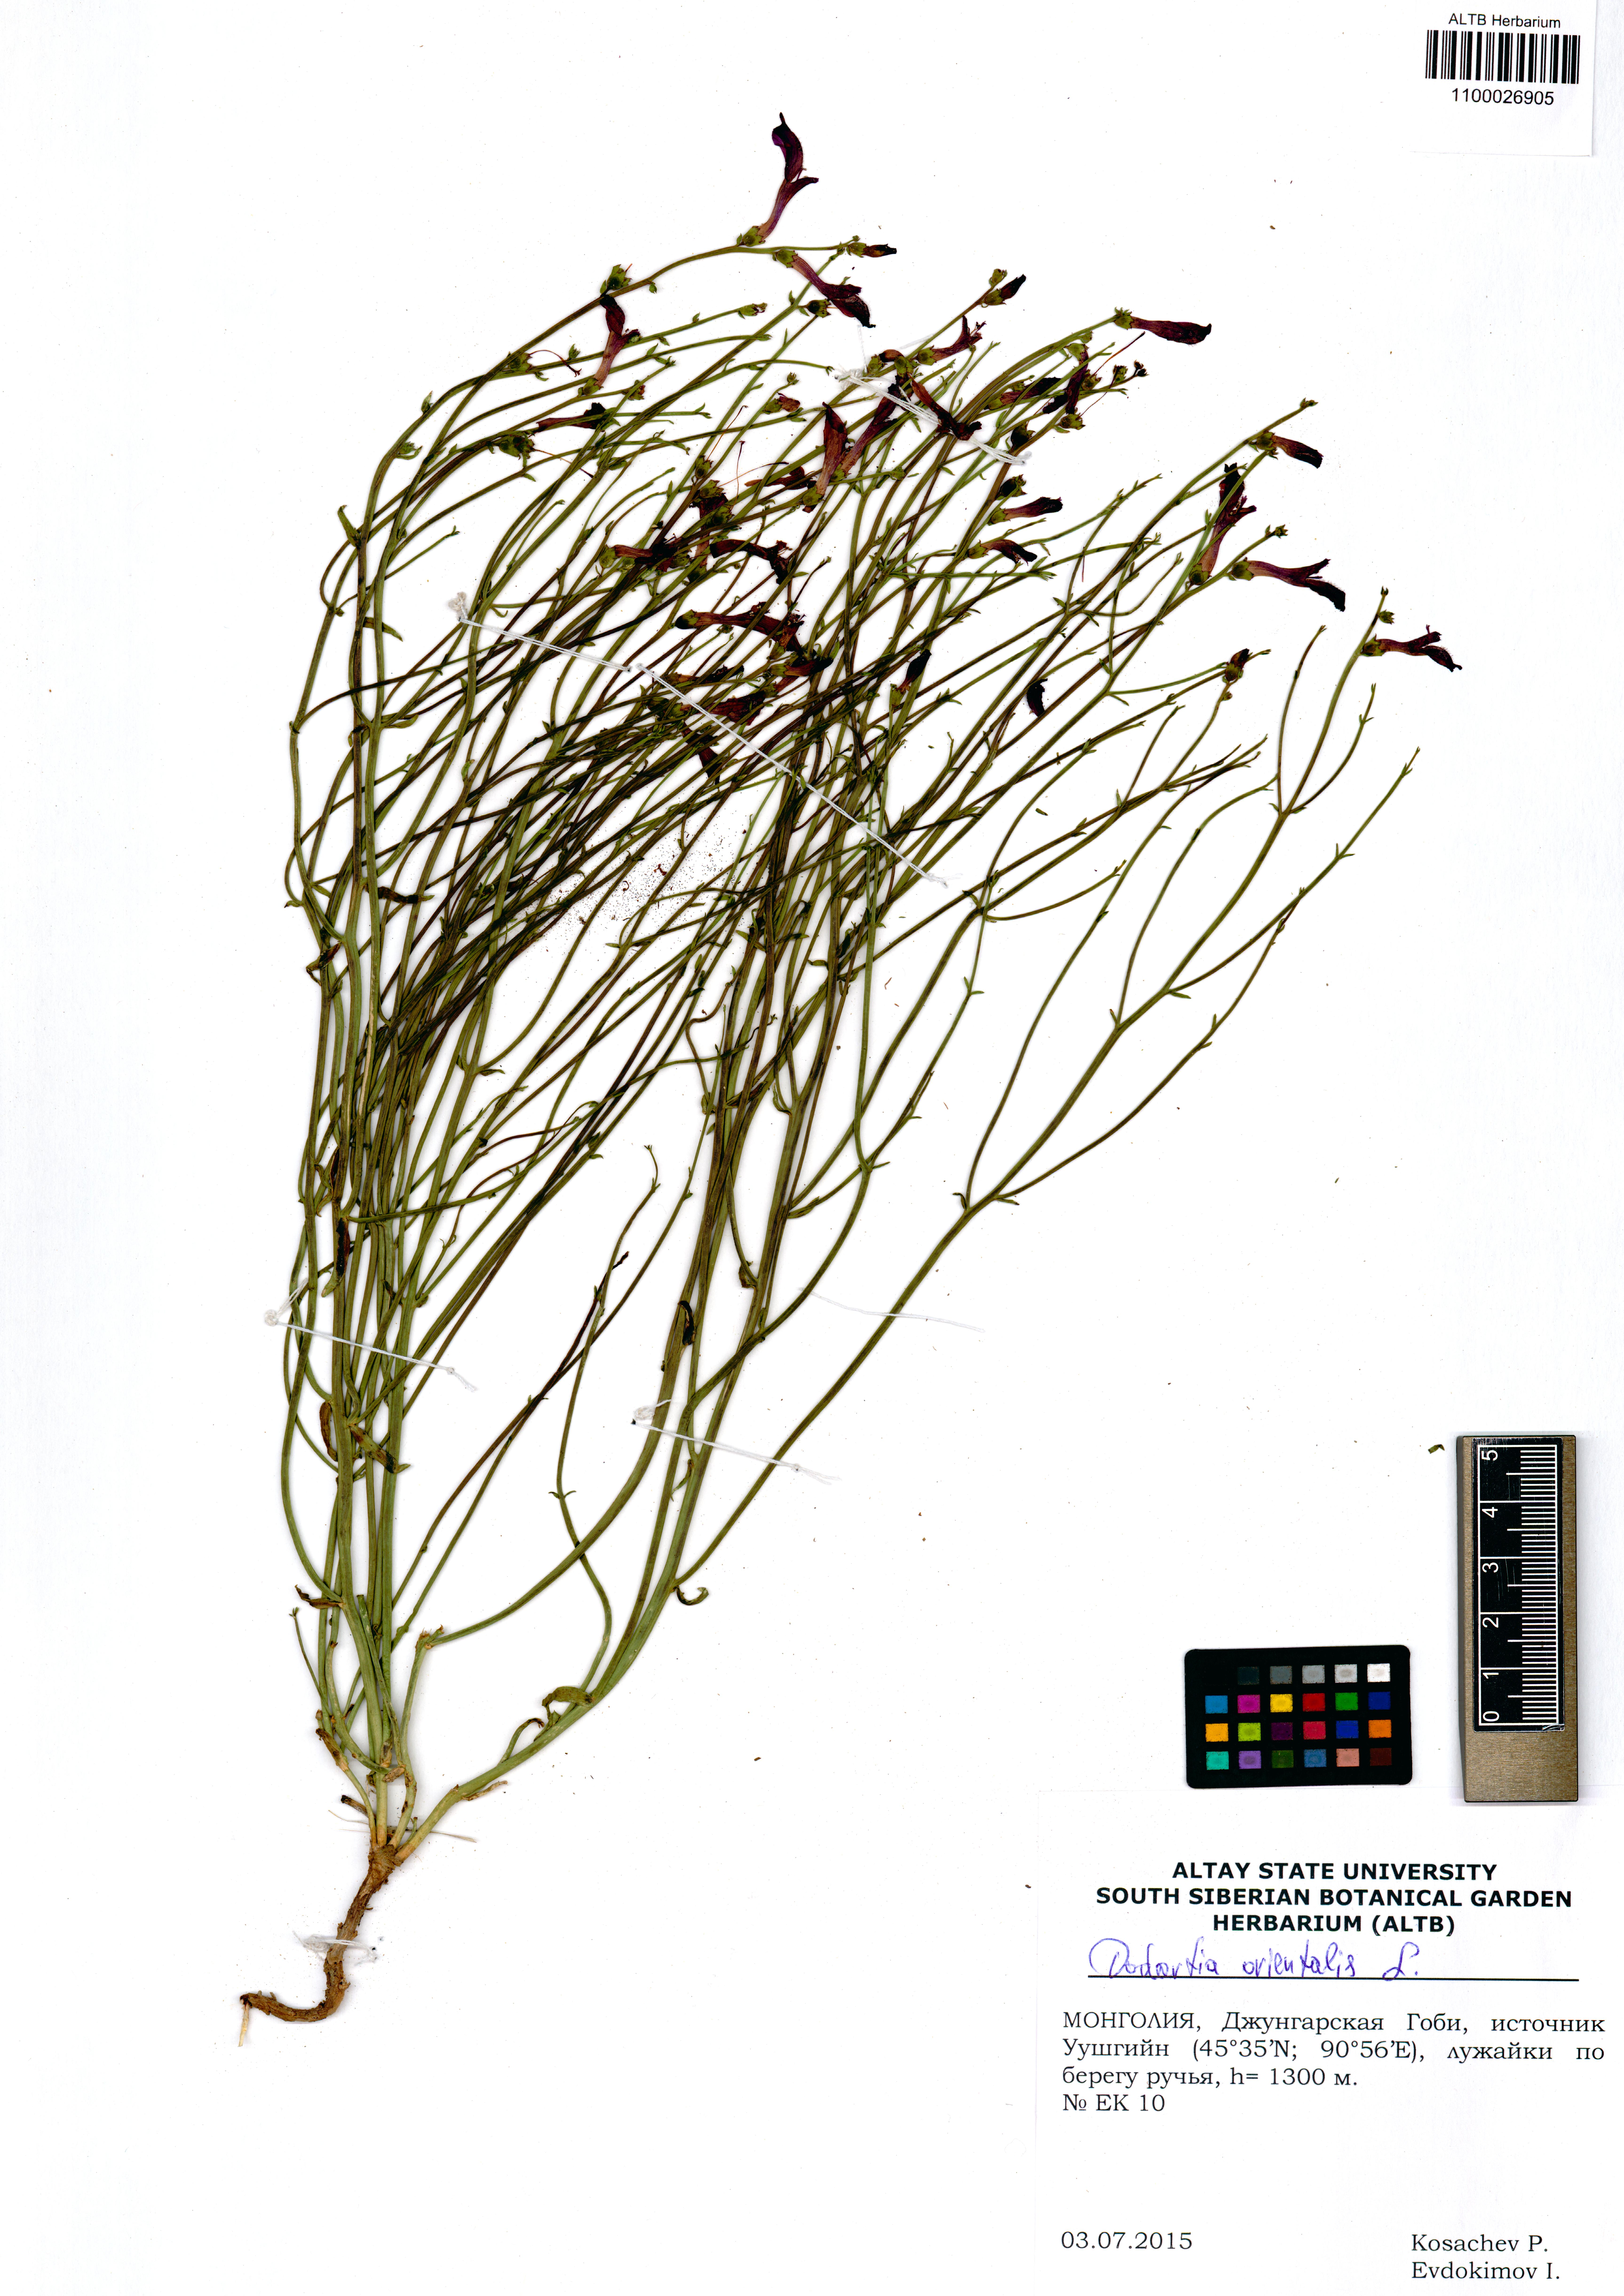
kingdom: Plantae
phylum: Tracheophyta
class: Magnoliopsida
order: Lamiales
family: Mazaceae
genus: Dodartia
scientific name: Dodartia orientalis
